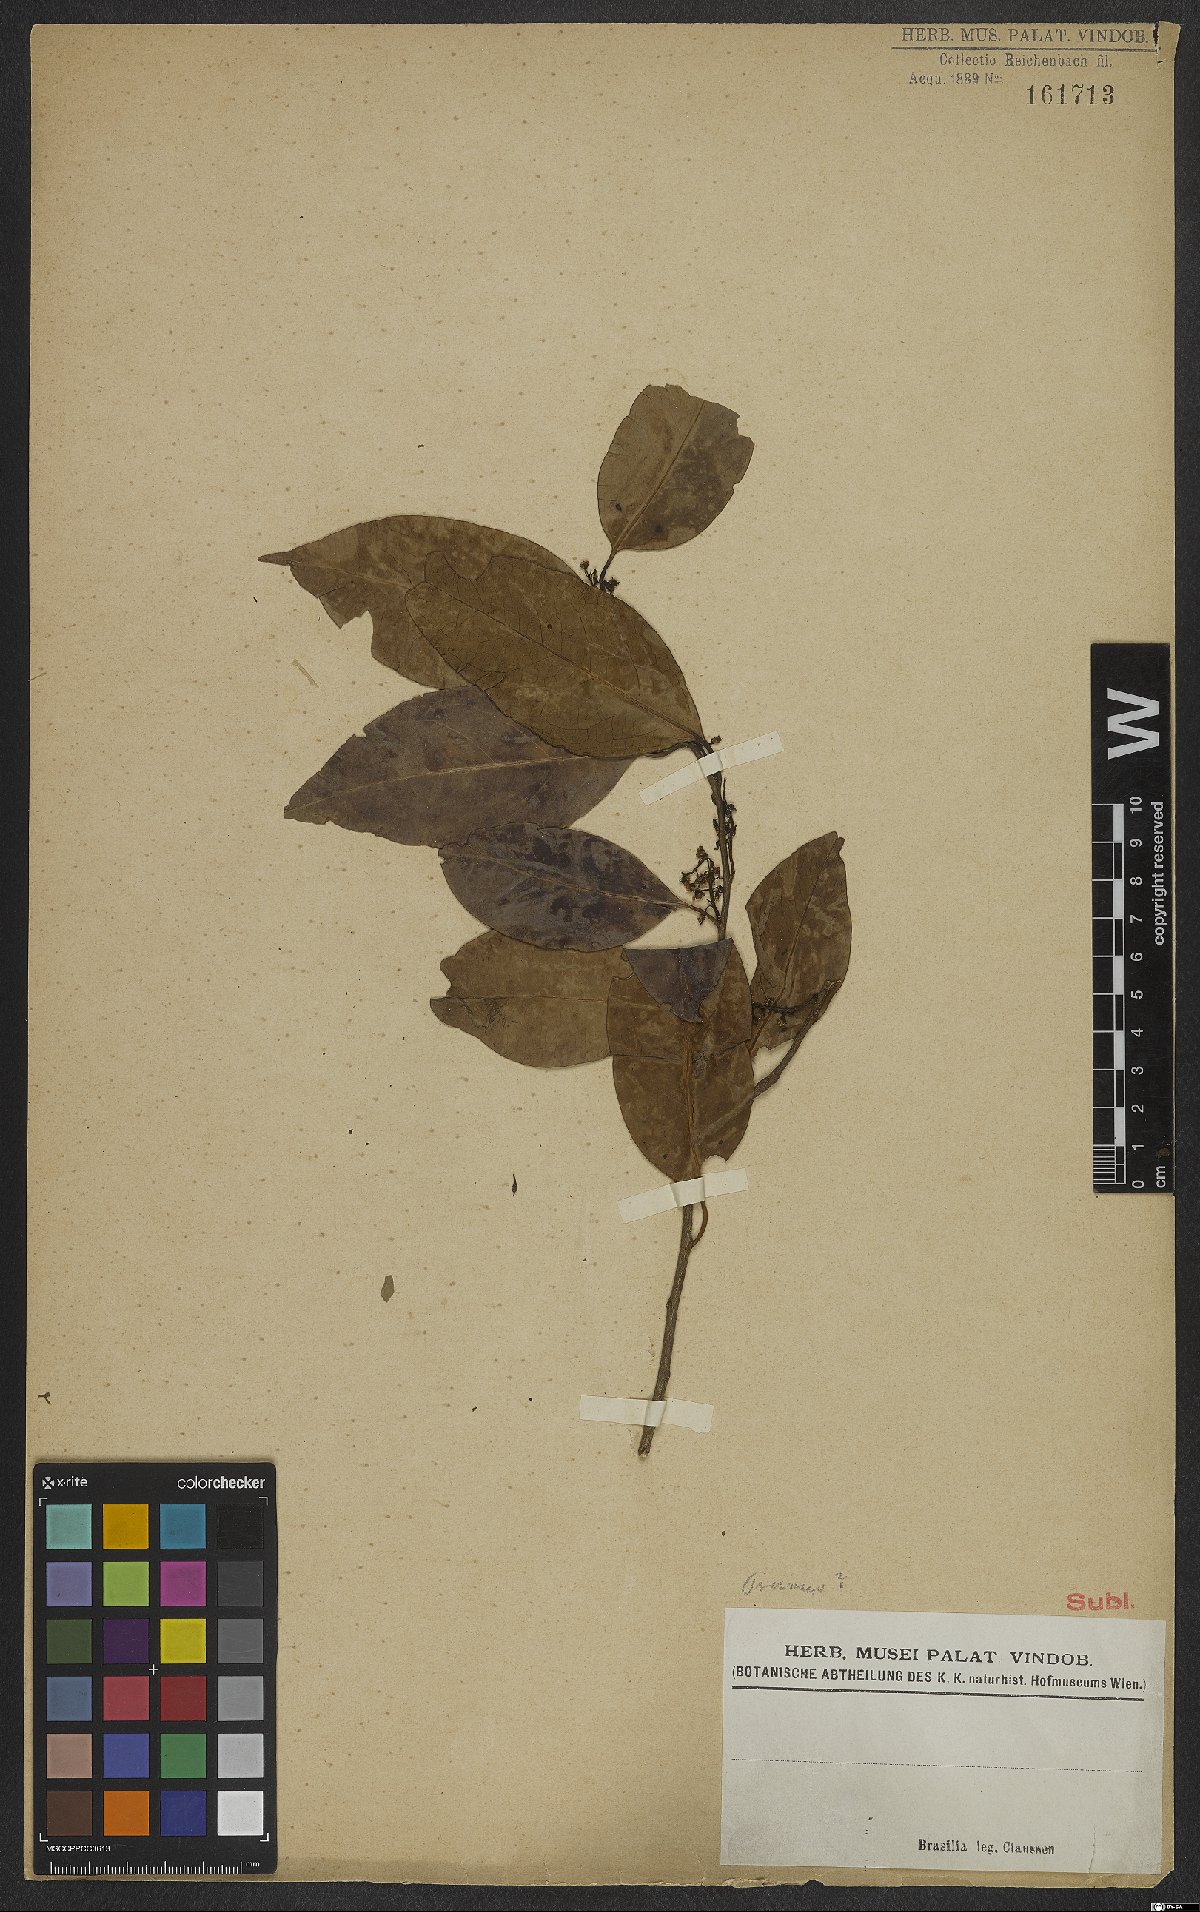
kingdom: Plantae
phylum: Tracheophyta
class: Magnoliopsida
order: Rosales
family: Rosaceae
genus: Prunus
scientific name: Prunus
